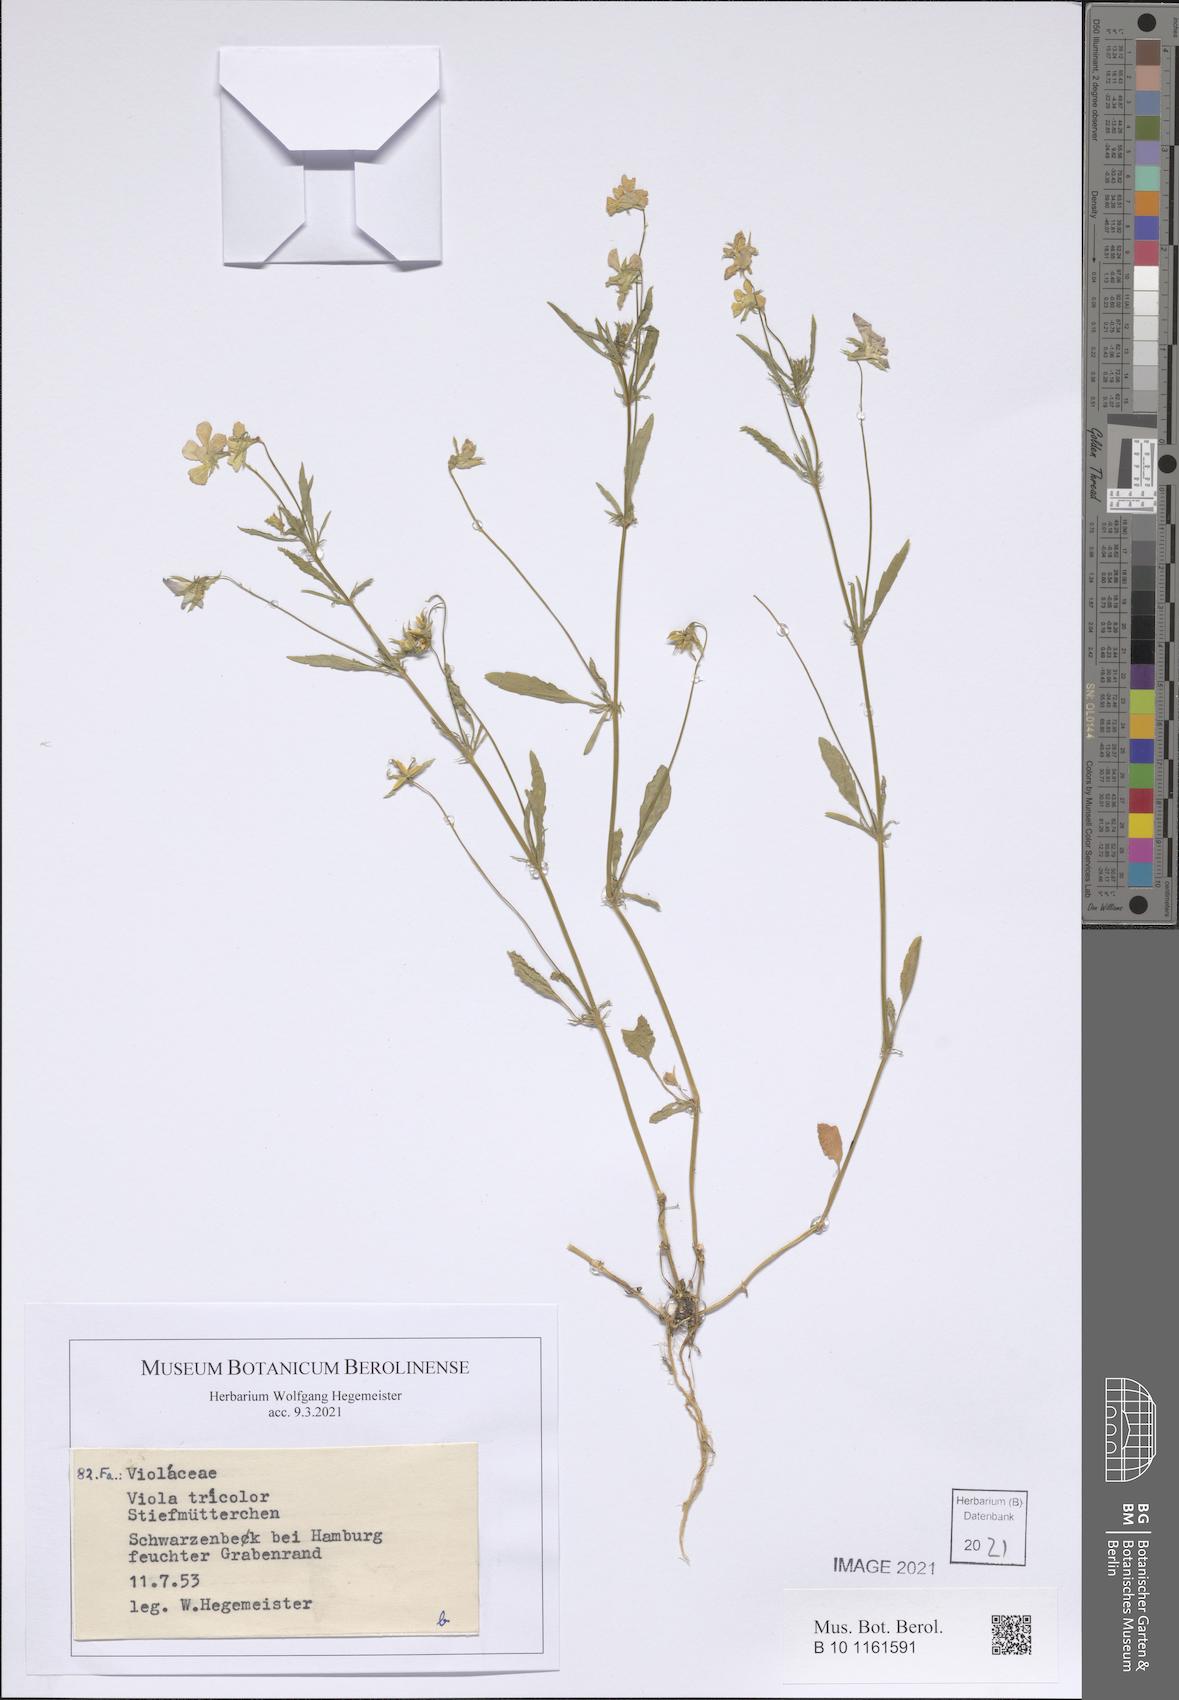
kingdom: Plantae
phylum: Tracheophyta
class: Magnoliopsida
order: Malpighiales
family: Violaceae
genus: Viola
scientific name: Viola tricolor
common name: Pansy
